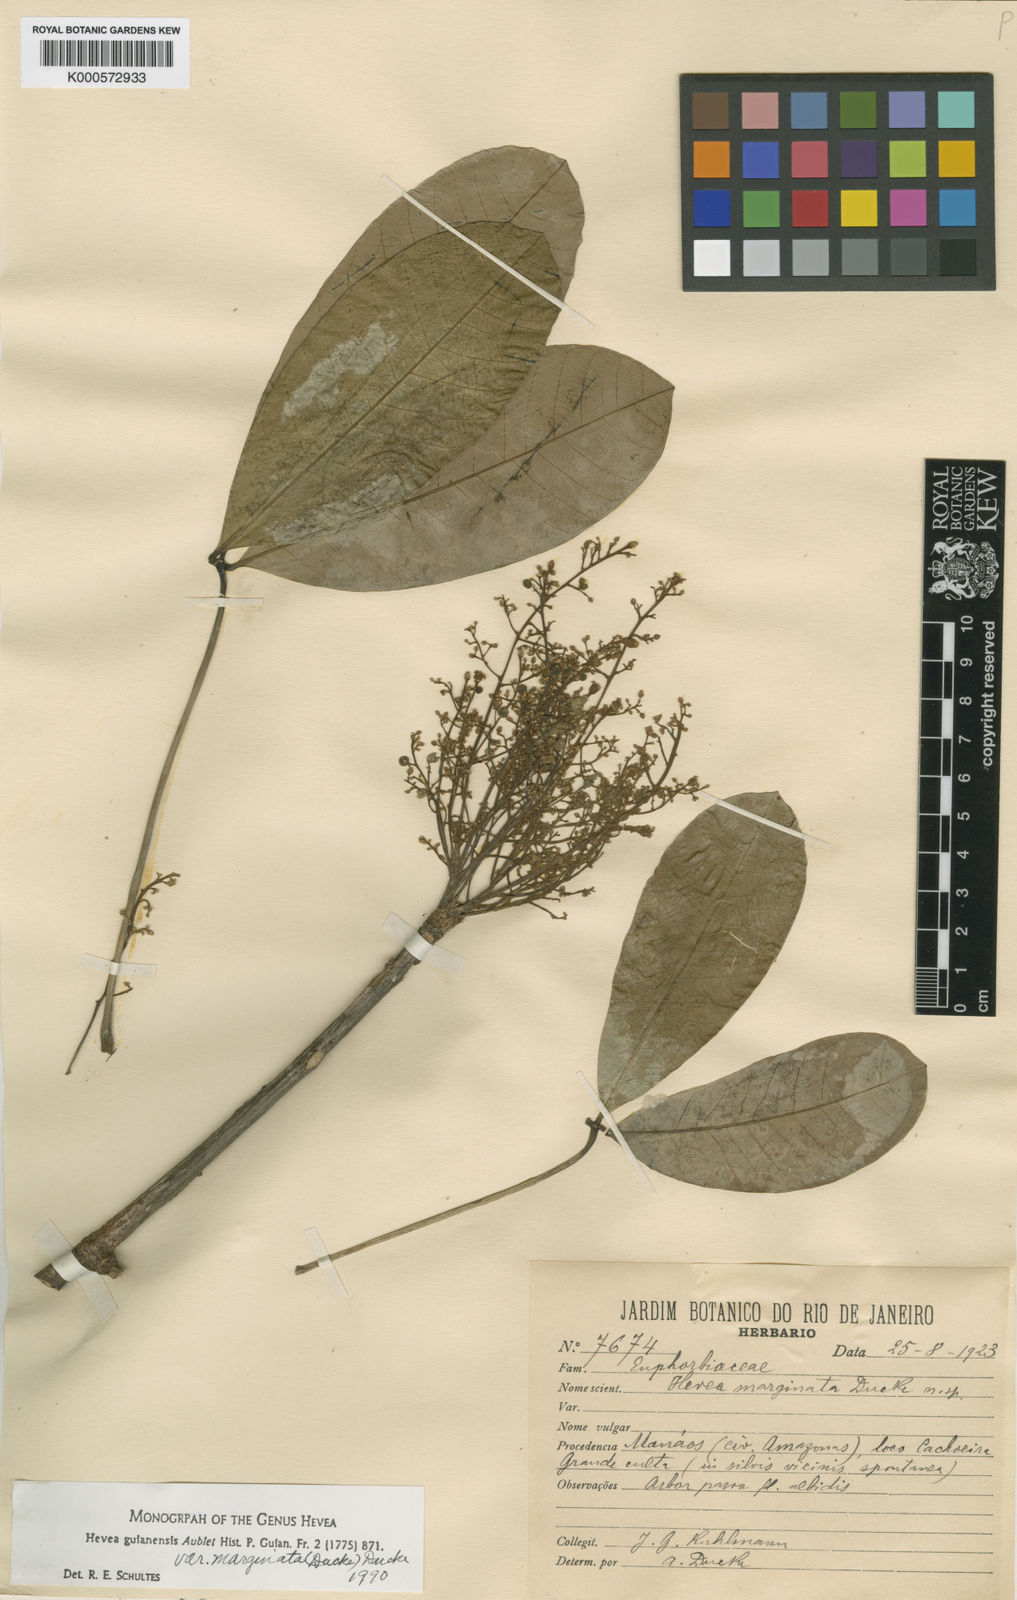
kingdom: Plantae
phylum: Tracheophyta
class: Magnoliopsida
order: Malpighiales
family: Euphorbiaceae
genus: Hevea
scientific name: Hevea guianensis
